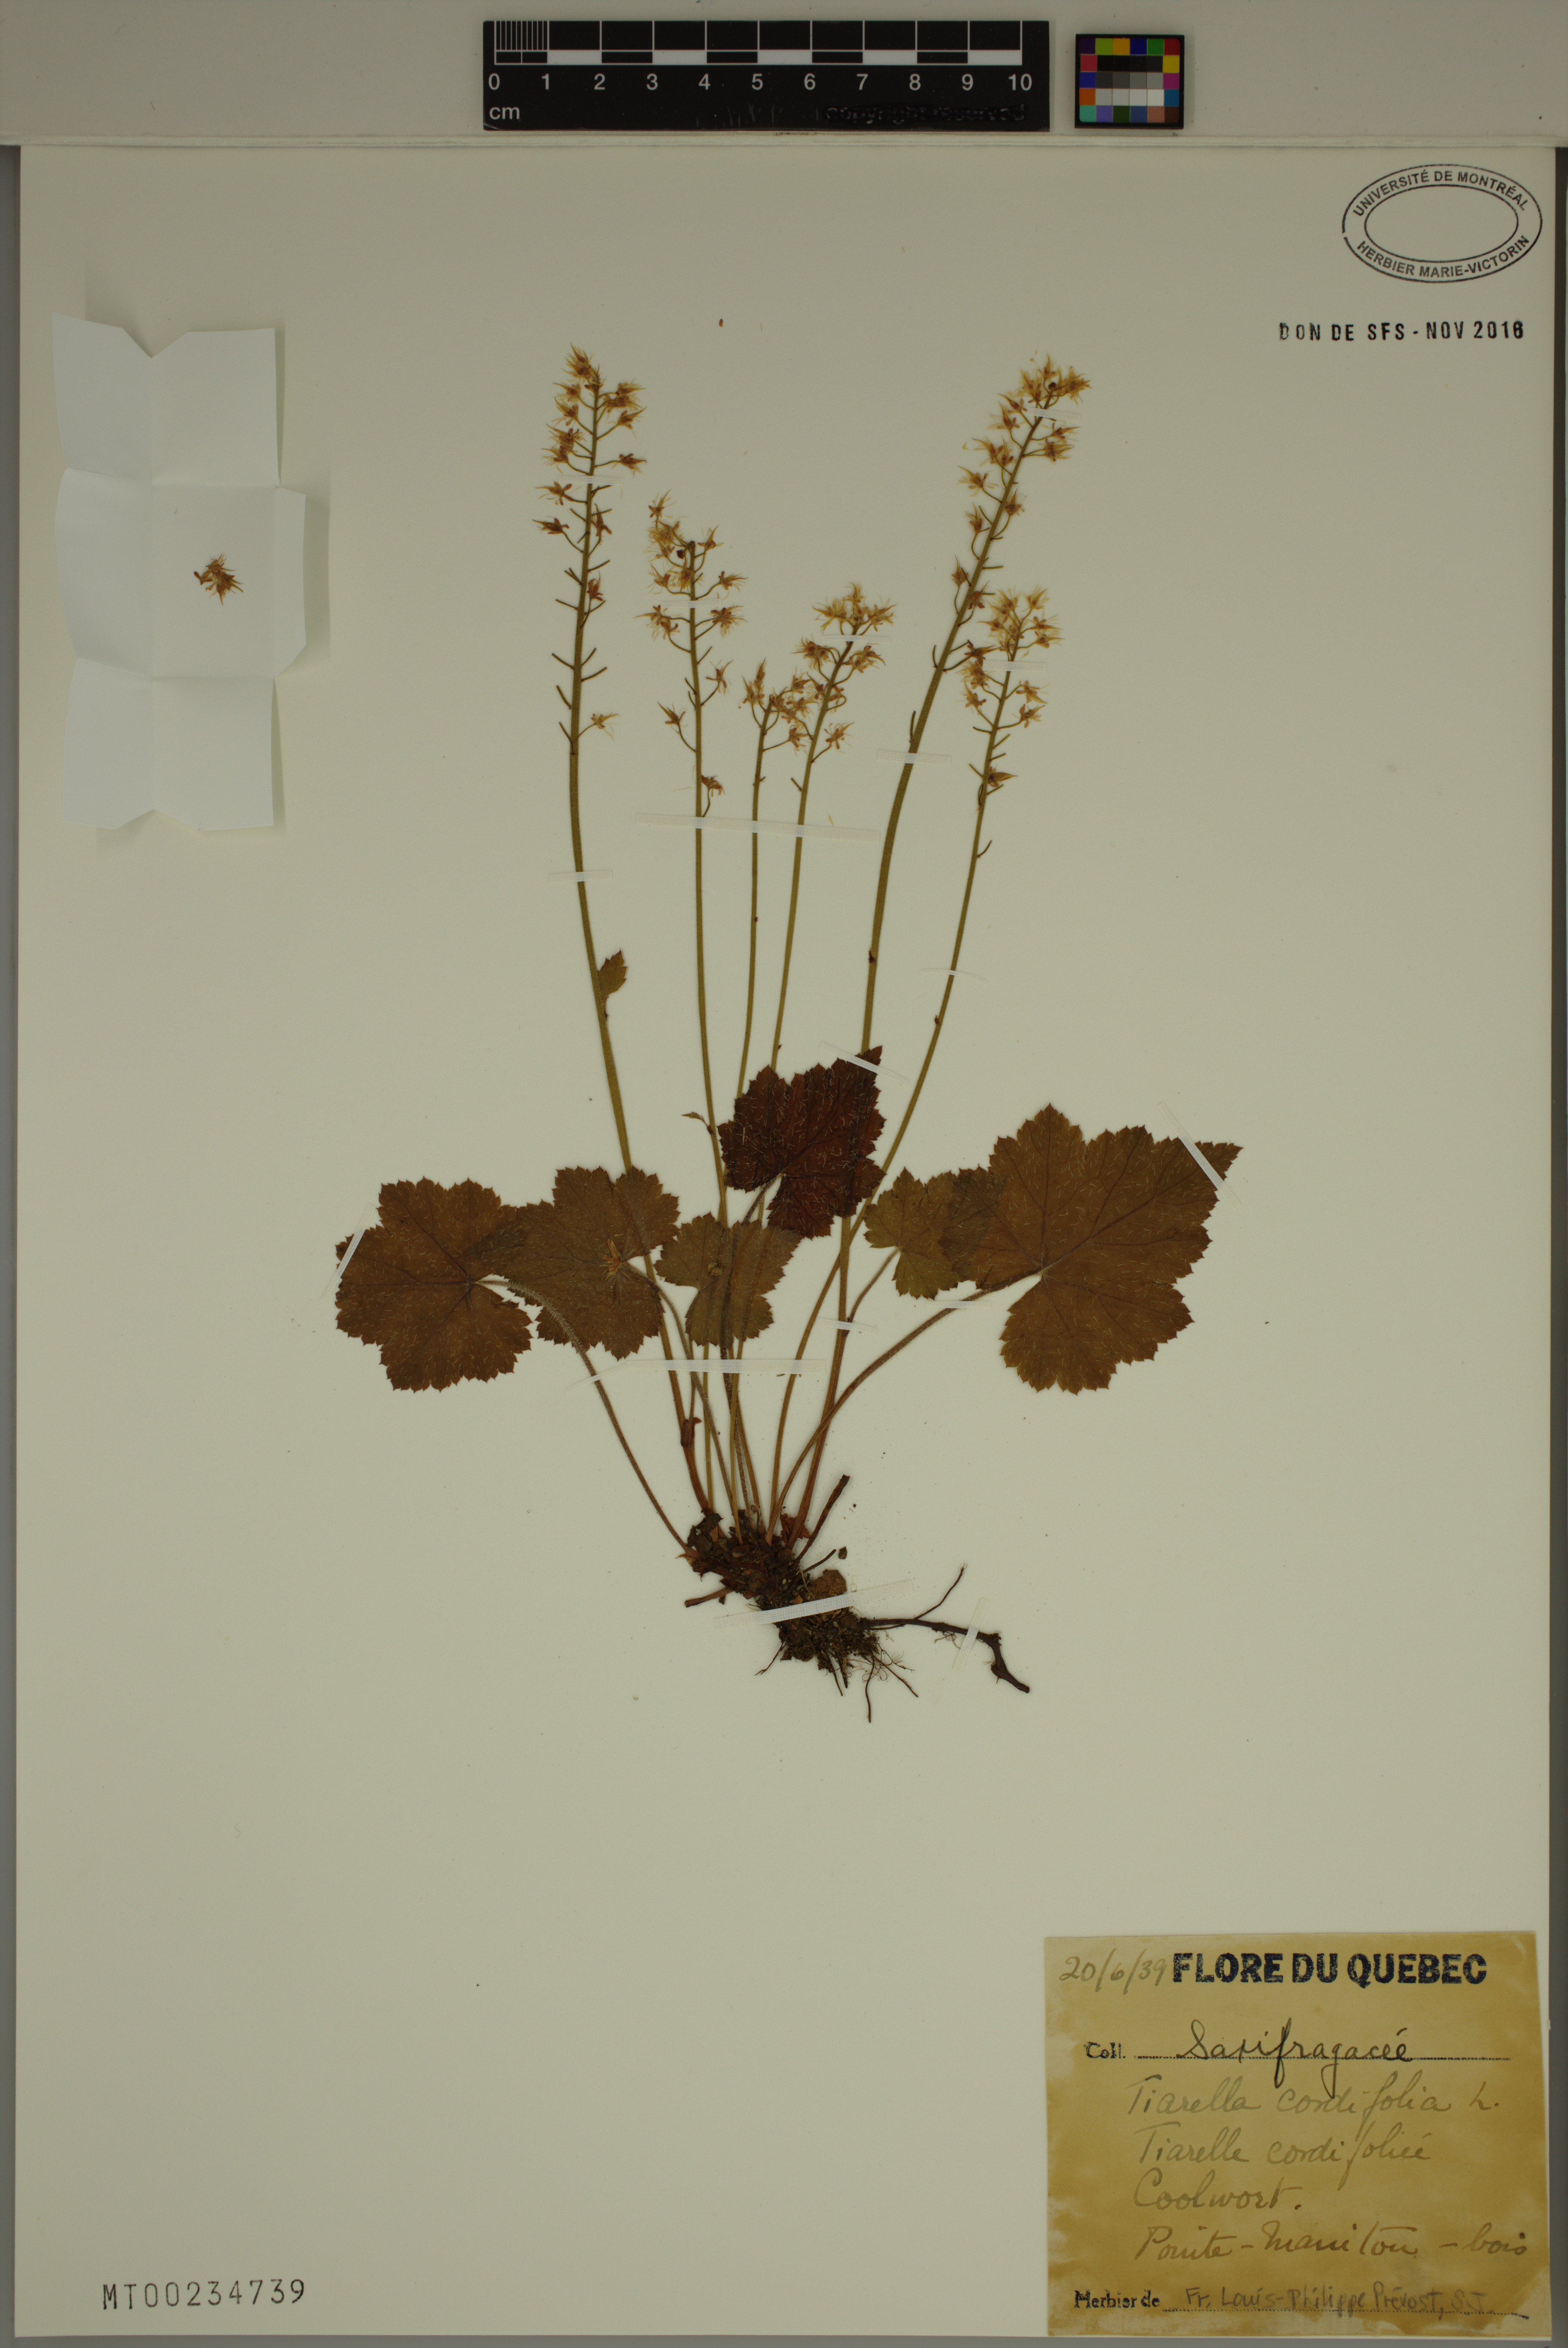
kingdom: Plantae
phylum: Tracheophyta
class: Magnoliopsida
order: Saxifragales
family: Saxifragaceae
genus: Tiarella
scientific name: Tiarella cordifolia
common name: Foamflower
